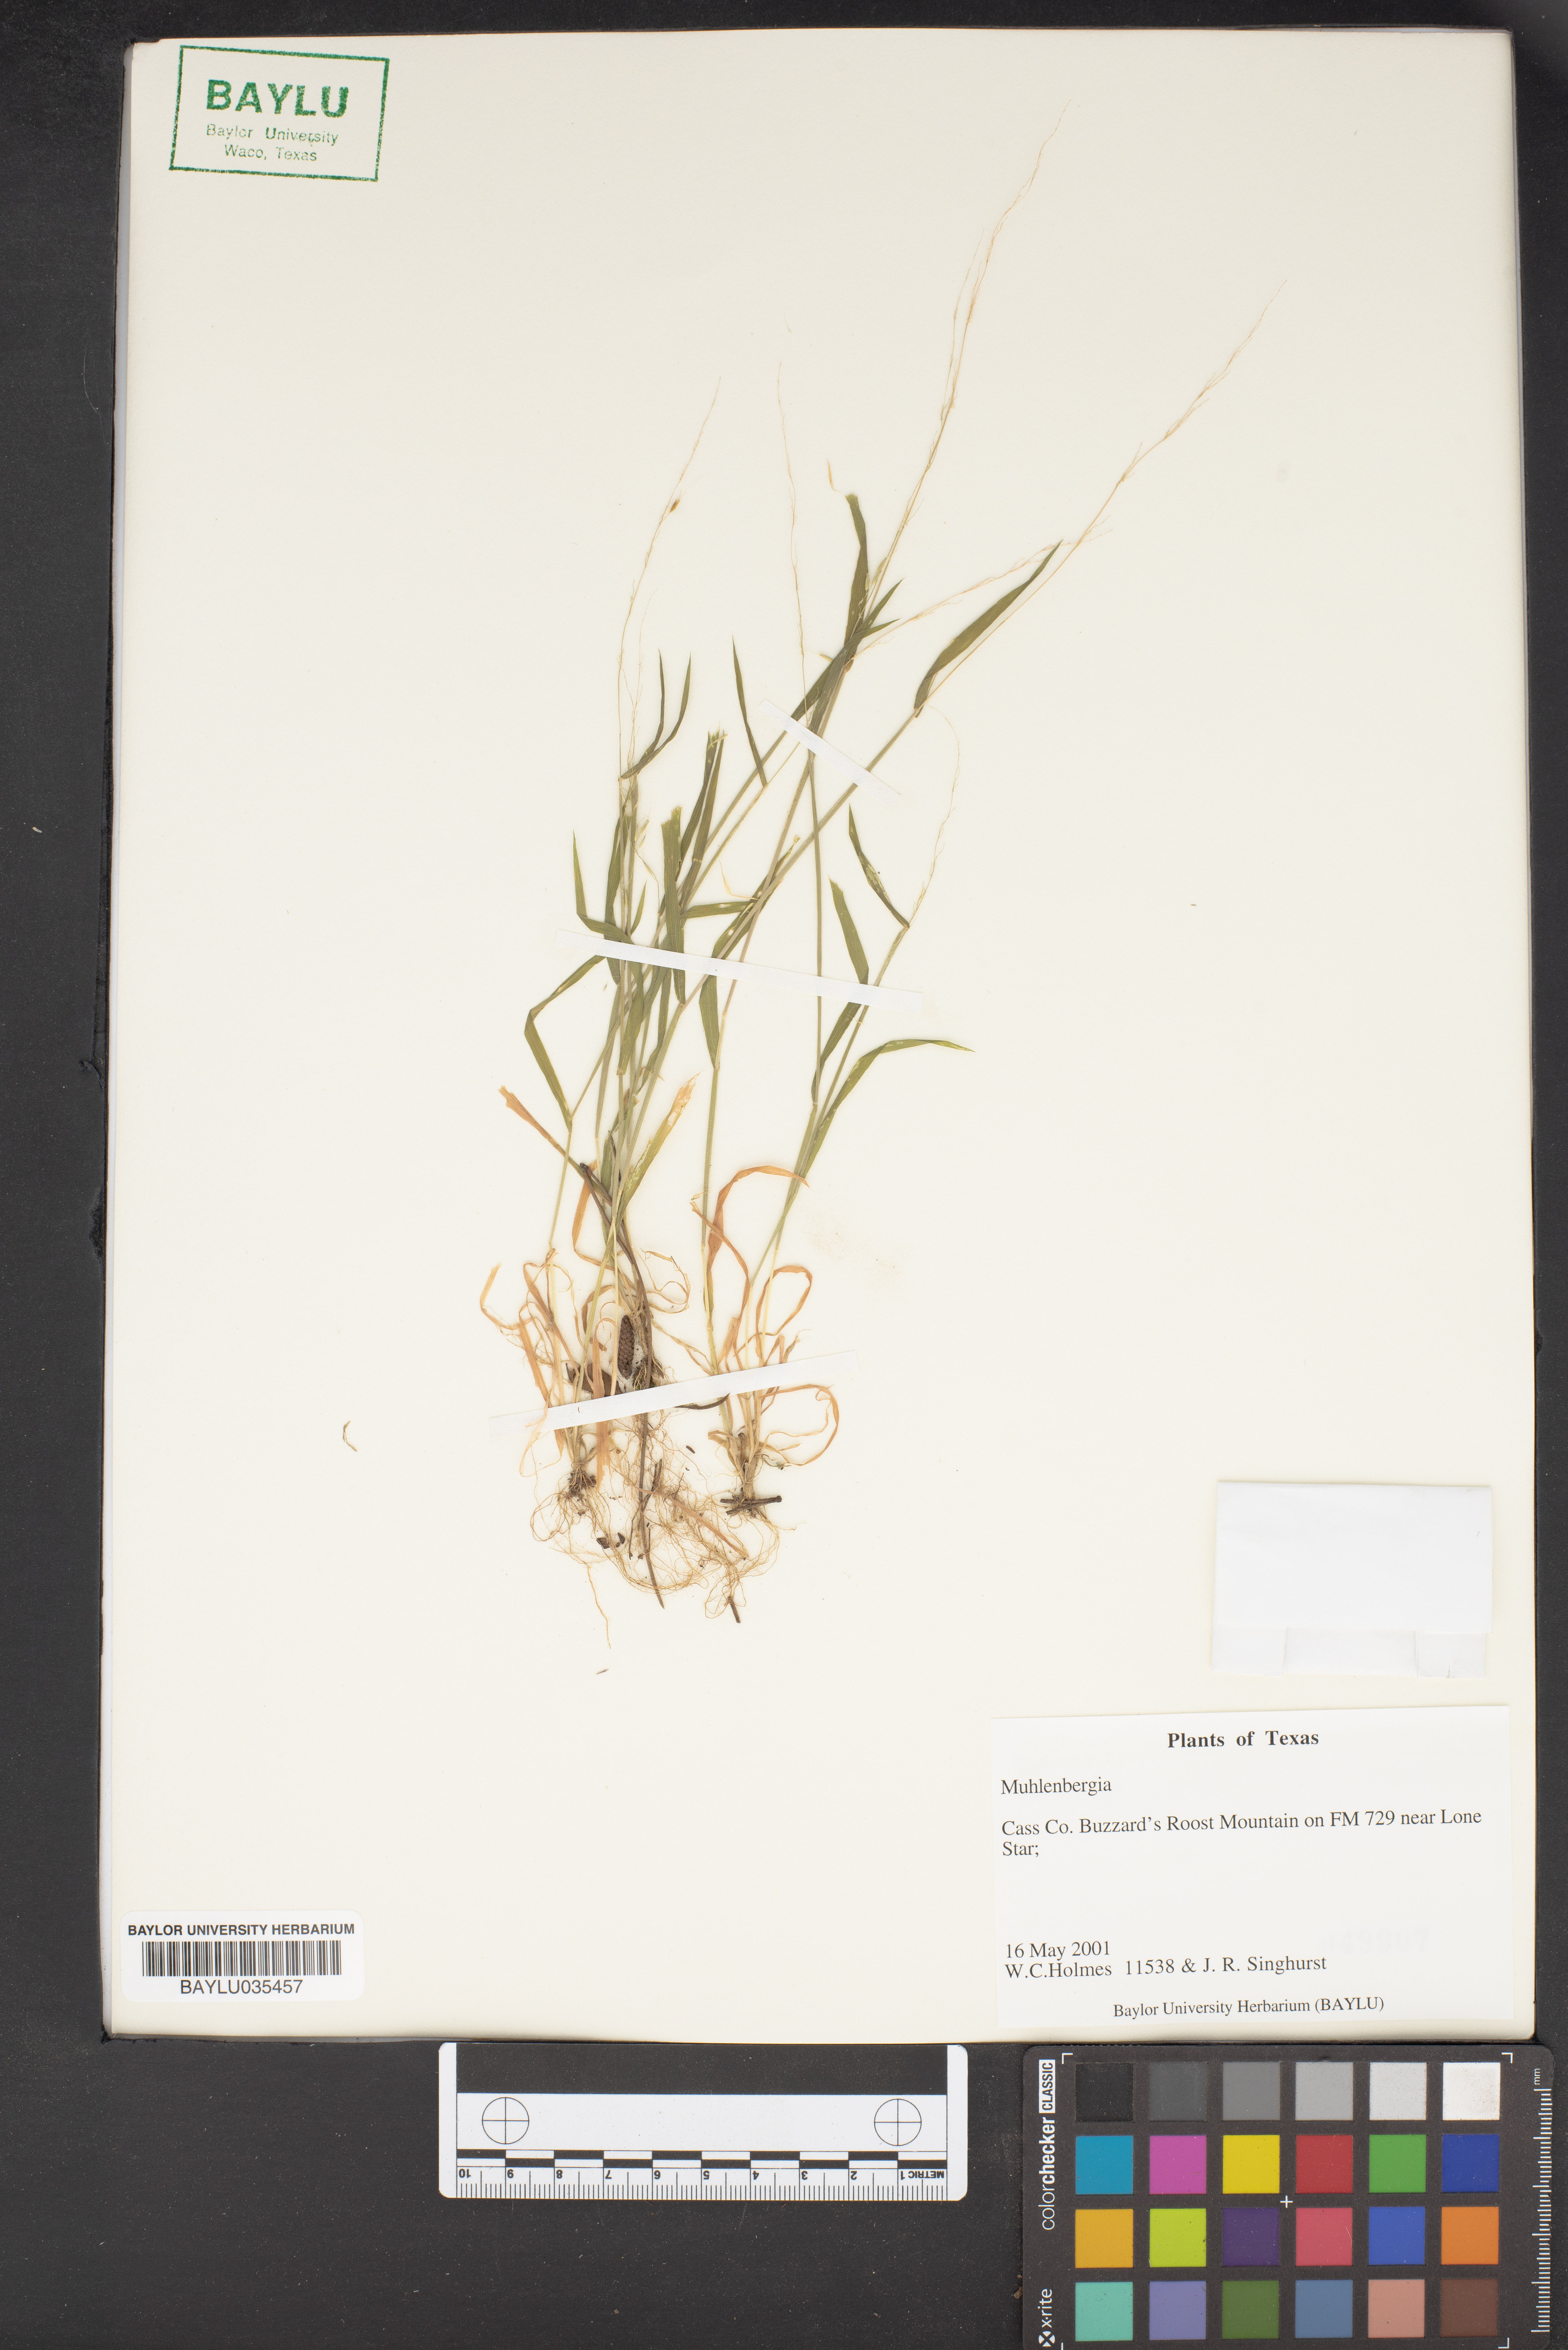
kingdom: Plantae
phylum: Tracheophyta
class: Liliopsida
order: Poales
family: Poaceae
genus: Muhlenbergia
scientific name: Muhlenbergia
